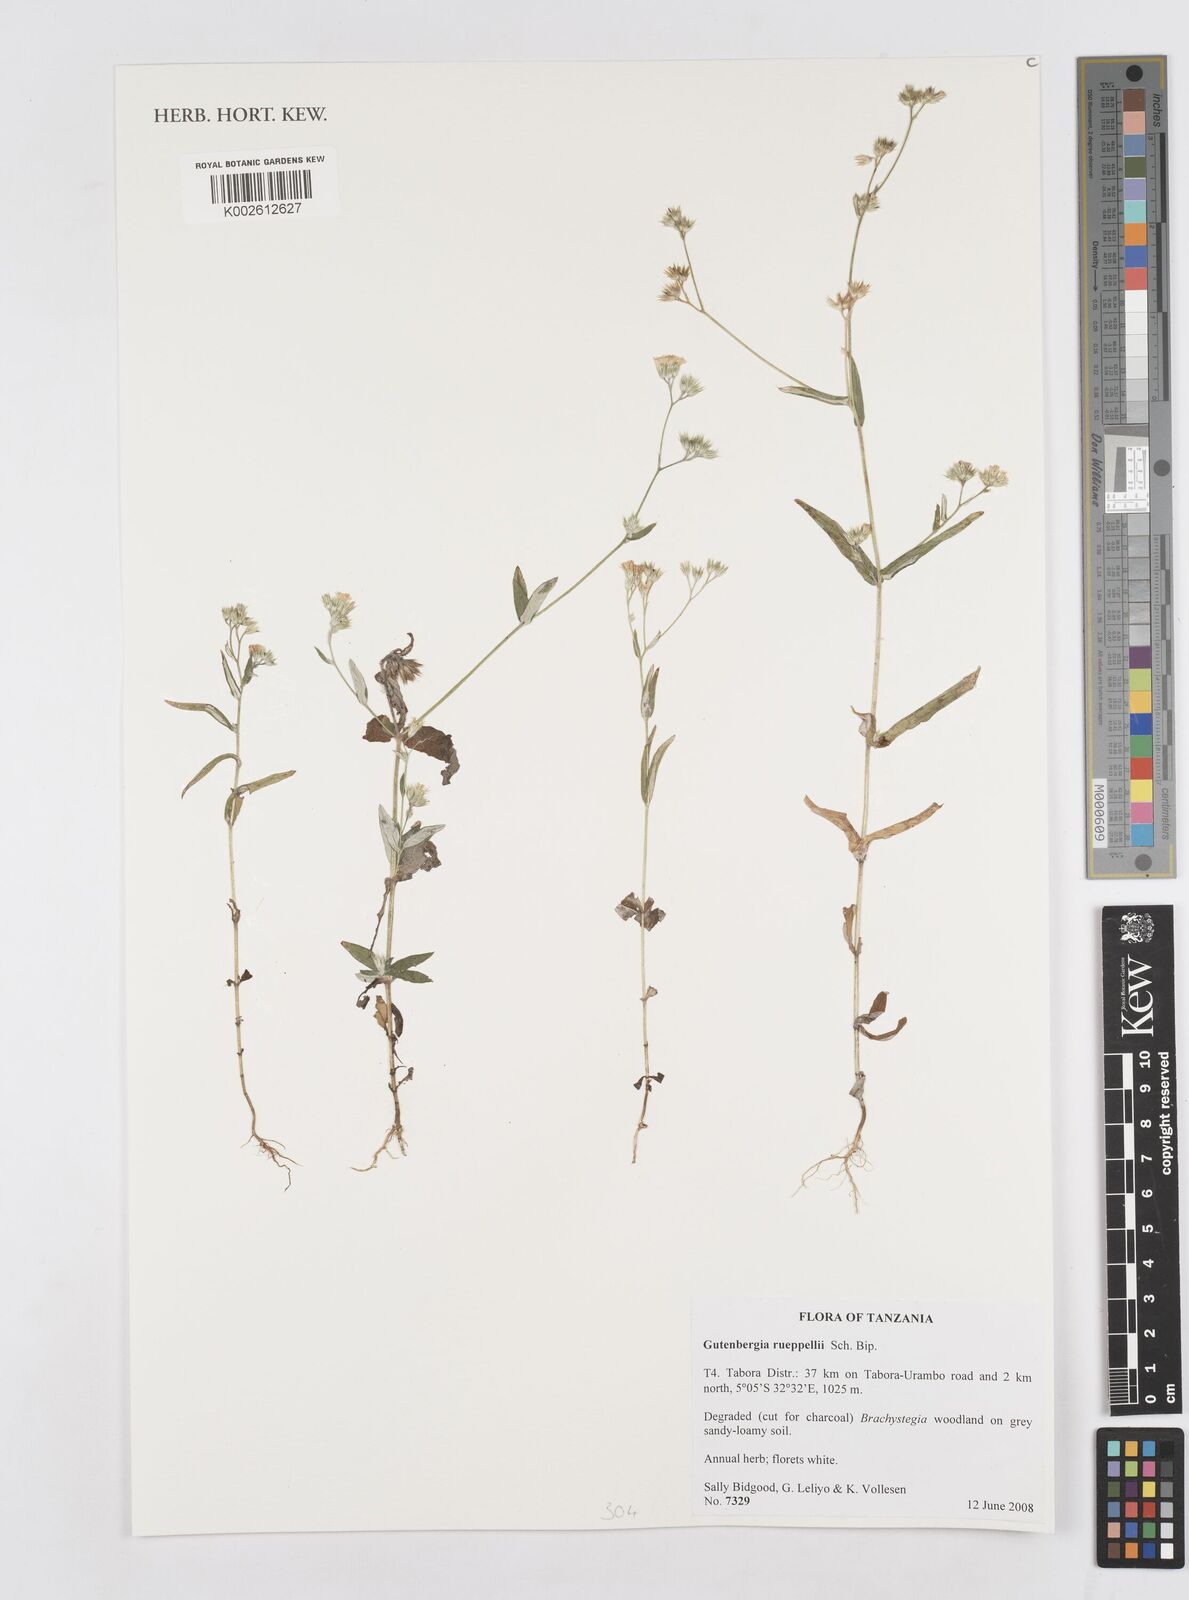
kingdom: Plantae
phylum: Tracheophyta
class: Magnoliopsida
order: Asterales
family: Asteraceae
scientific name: Asteraceae
